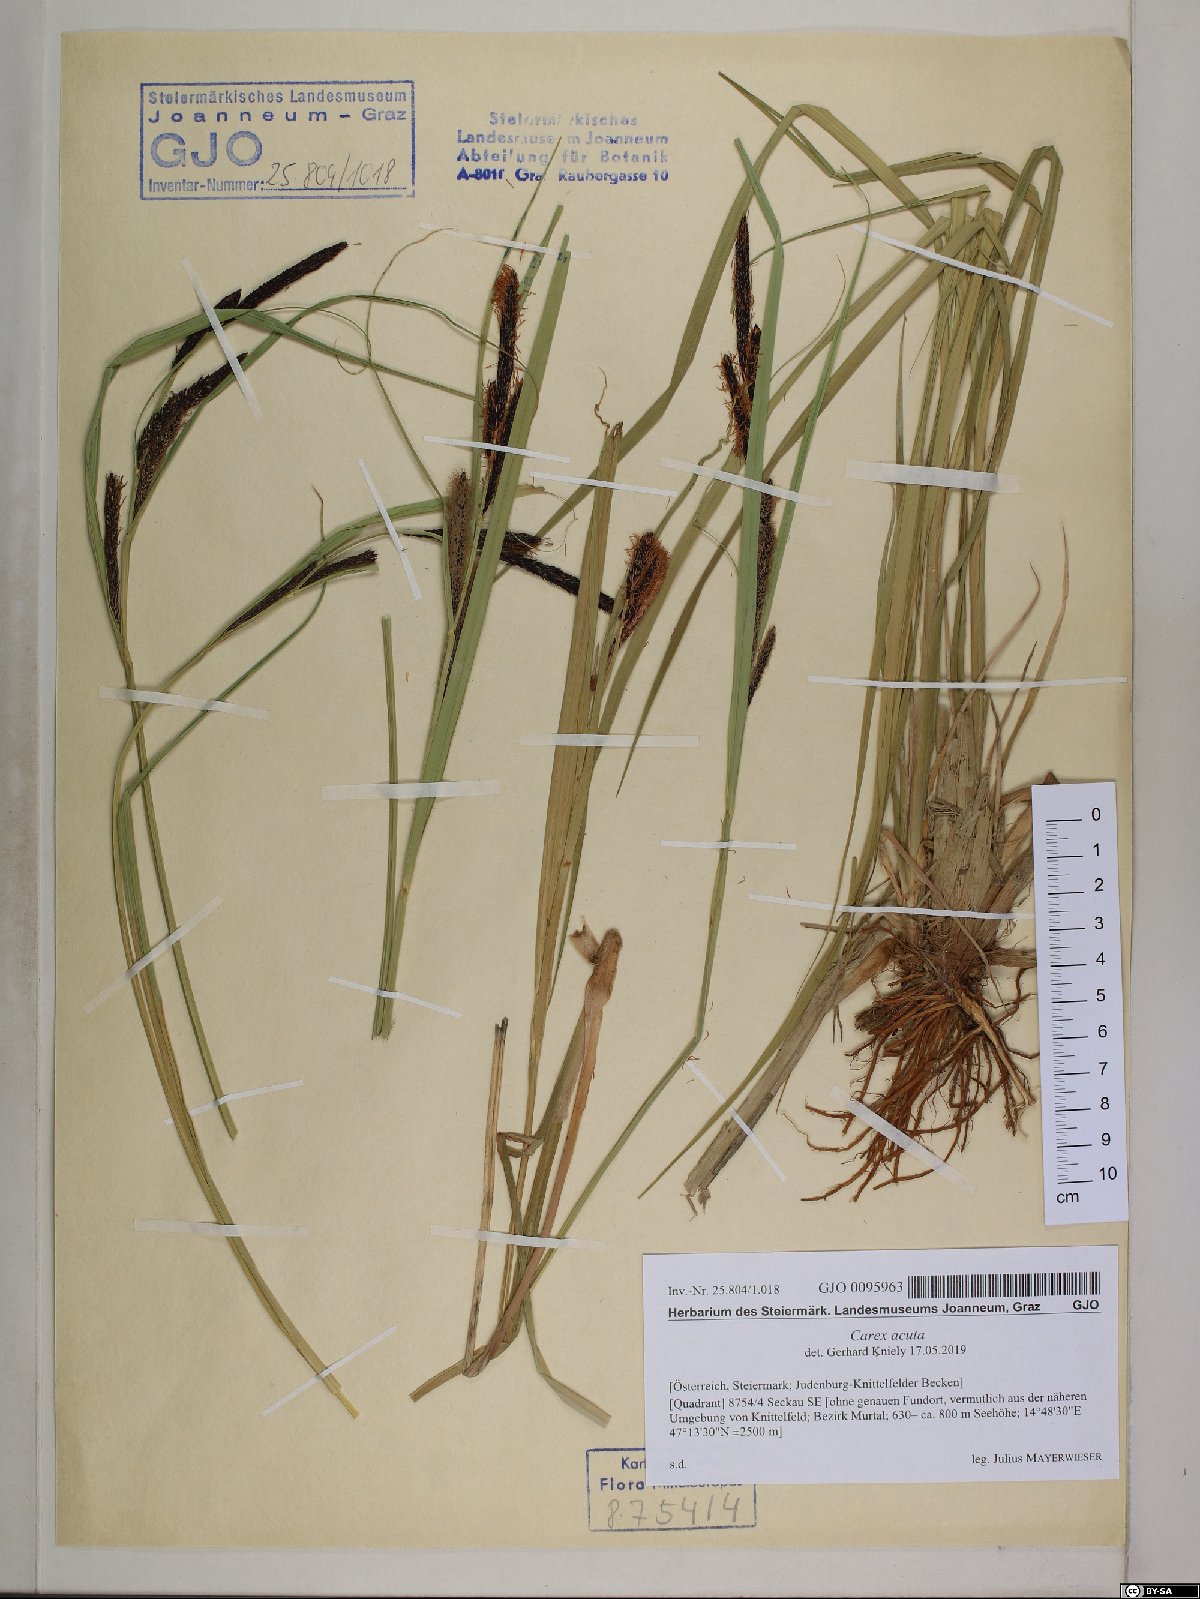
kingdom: Plantae
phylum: Tracheophyta
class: Liliopsida
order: Poales
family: Cyperaceae
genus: Carex
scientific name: Carex acuta
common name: Slender tufted-sedge
